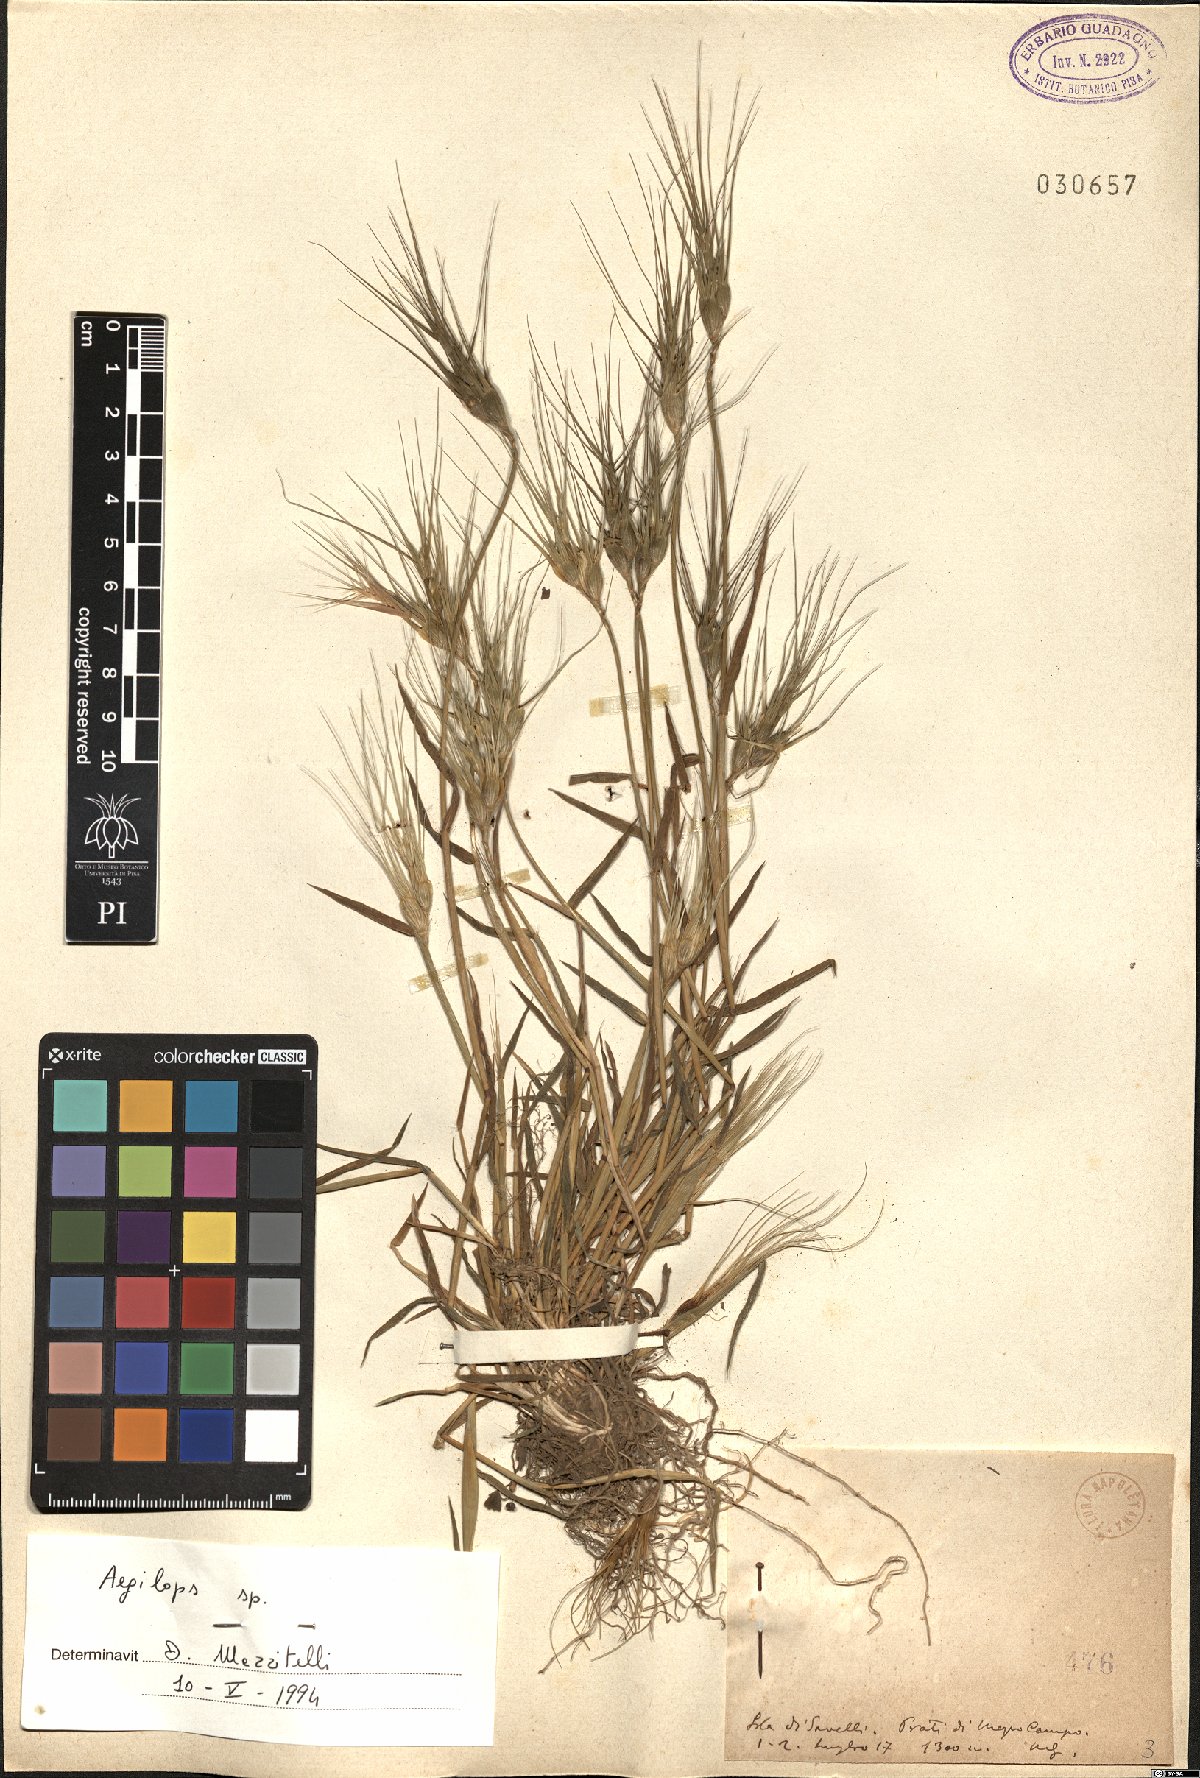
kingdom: Plantae
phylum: Tracheophyta
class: Liliopsida
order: Poales
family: Poaceae
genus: Aegilops
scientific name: Aegilops
